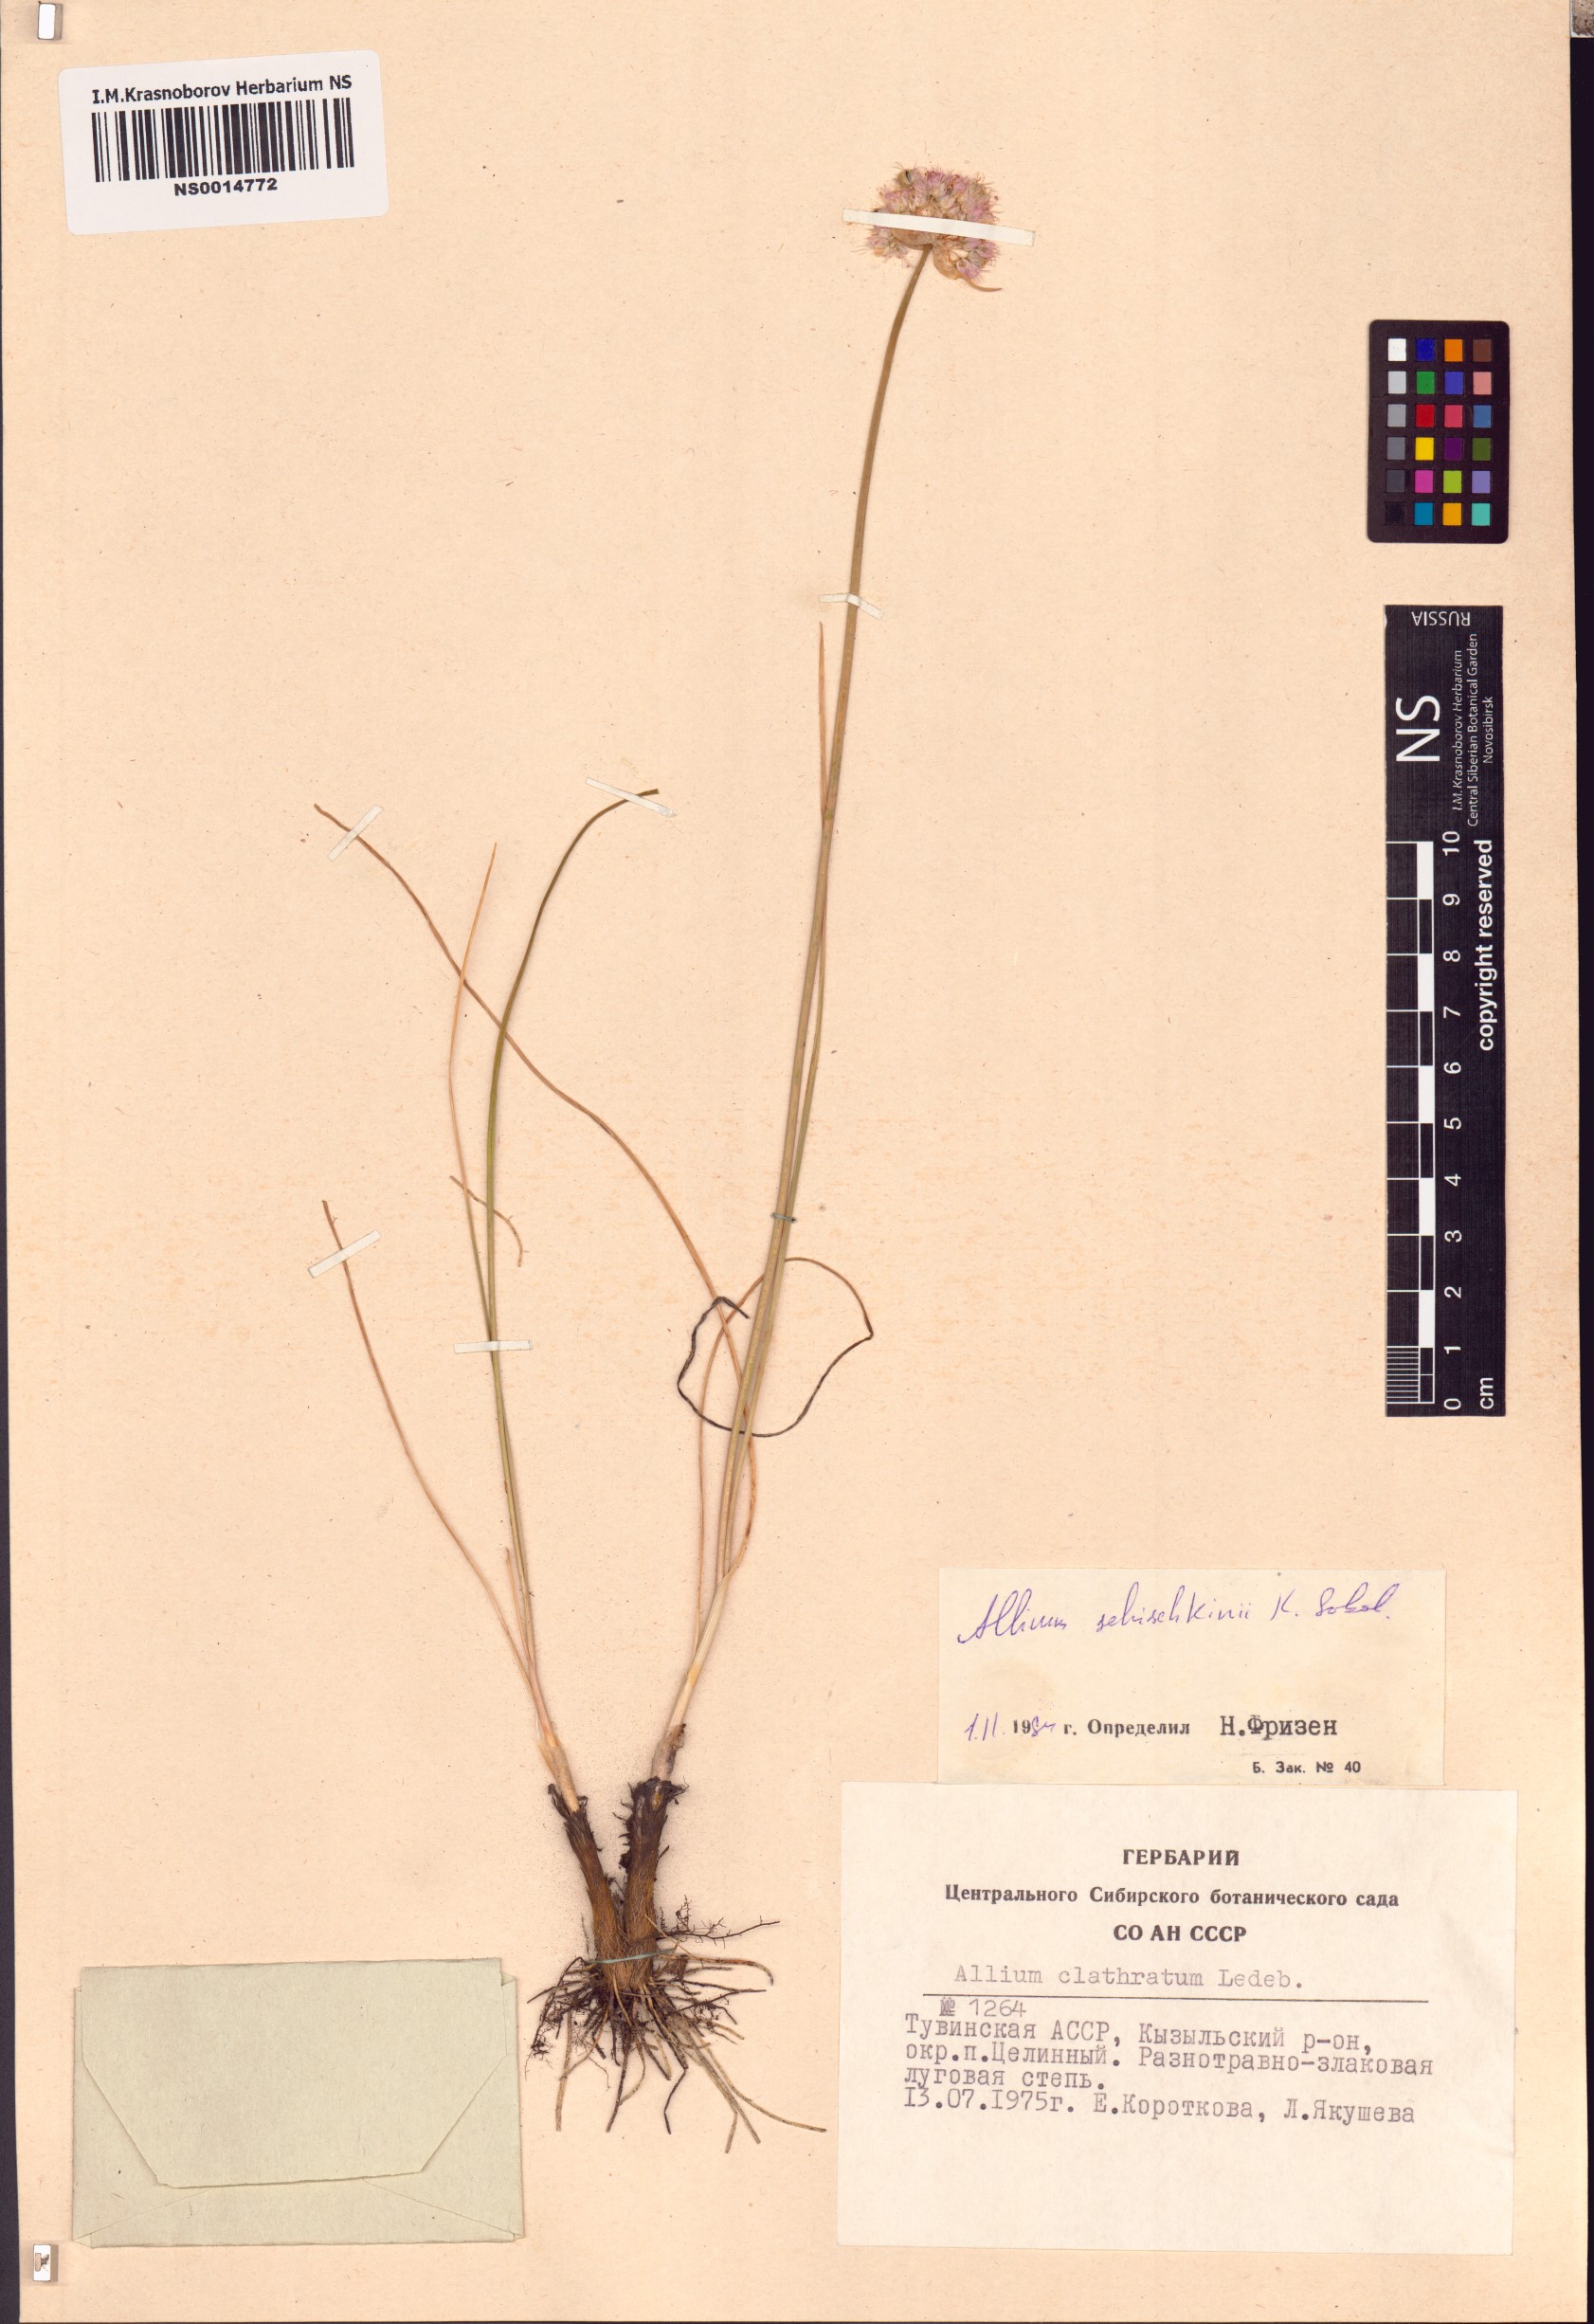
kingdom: Plantae
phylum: Tracheophyta
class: Liliopsida
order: Asparagales
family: Amaryllidaceae
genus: Allium
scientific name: Allium schischkinii
